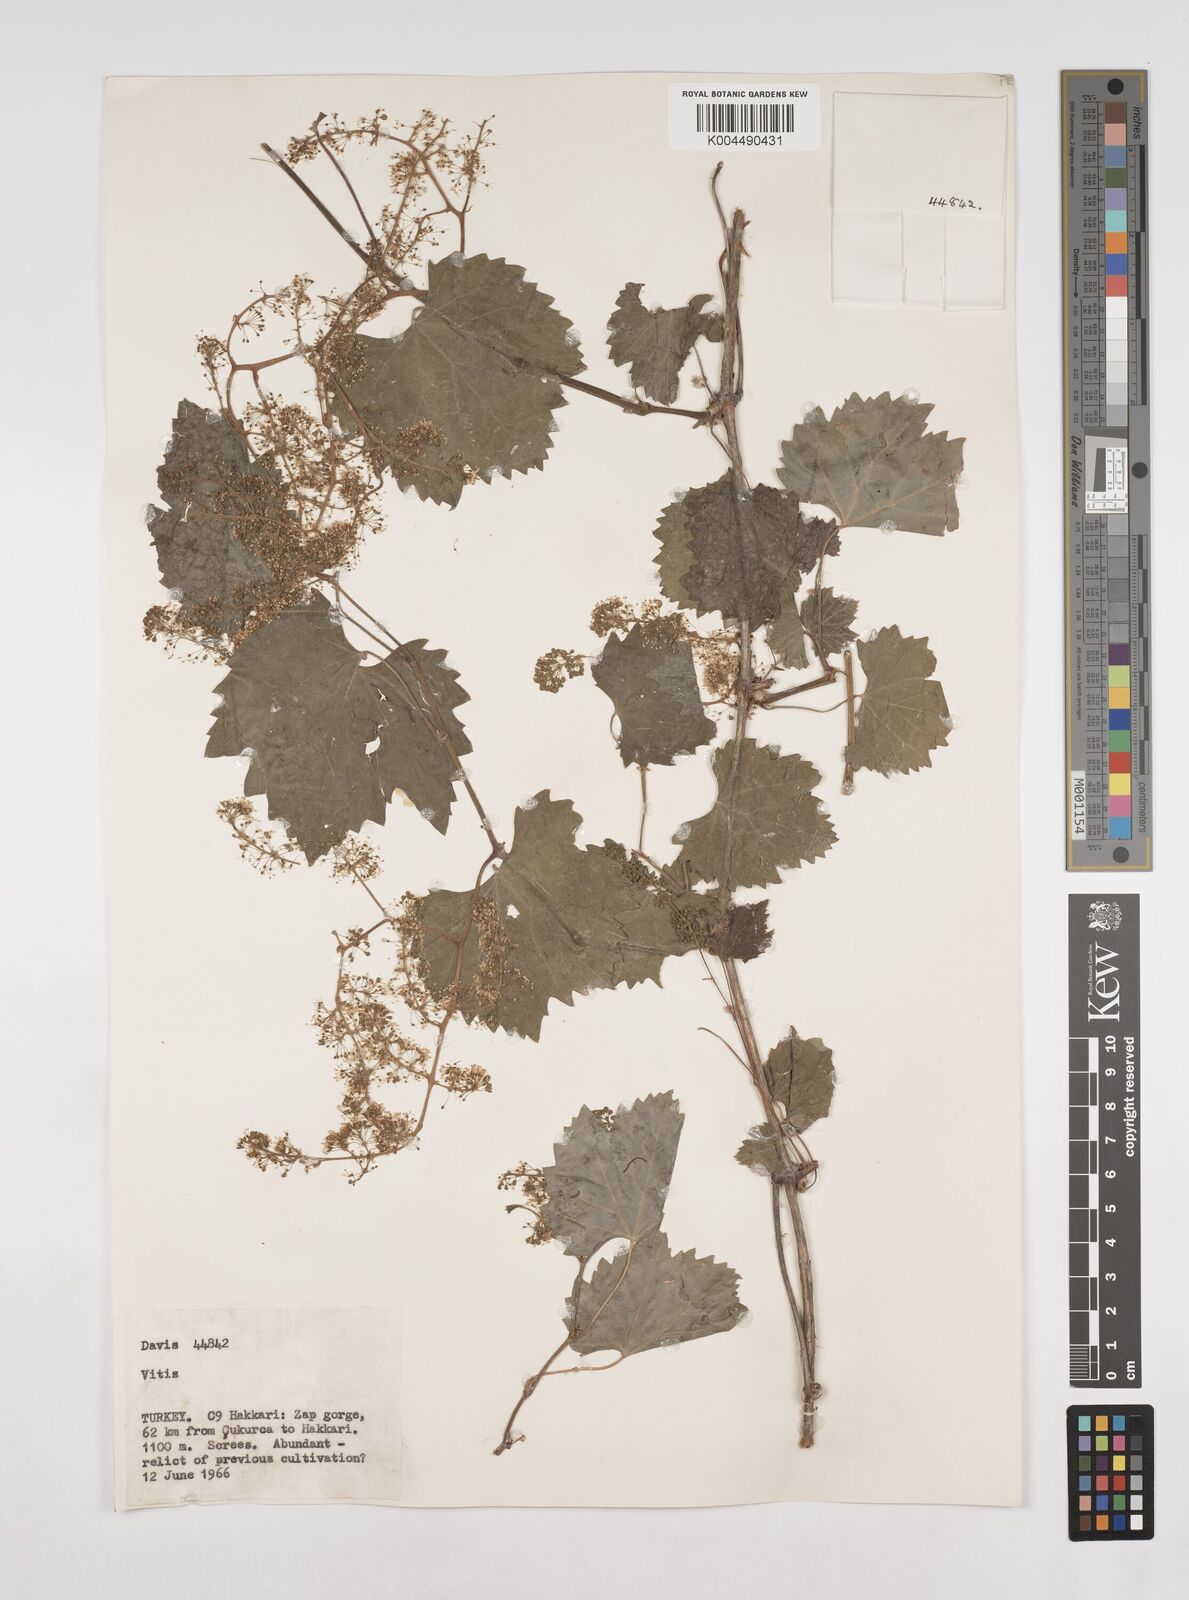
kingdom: Plantae
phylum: Tracheophyta
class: Magnoliopsida
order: Vitales
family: Vitaceae
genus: Vitis
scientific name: Vitis gmelinii
